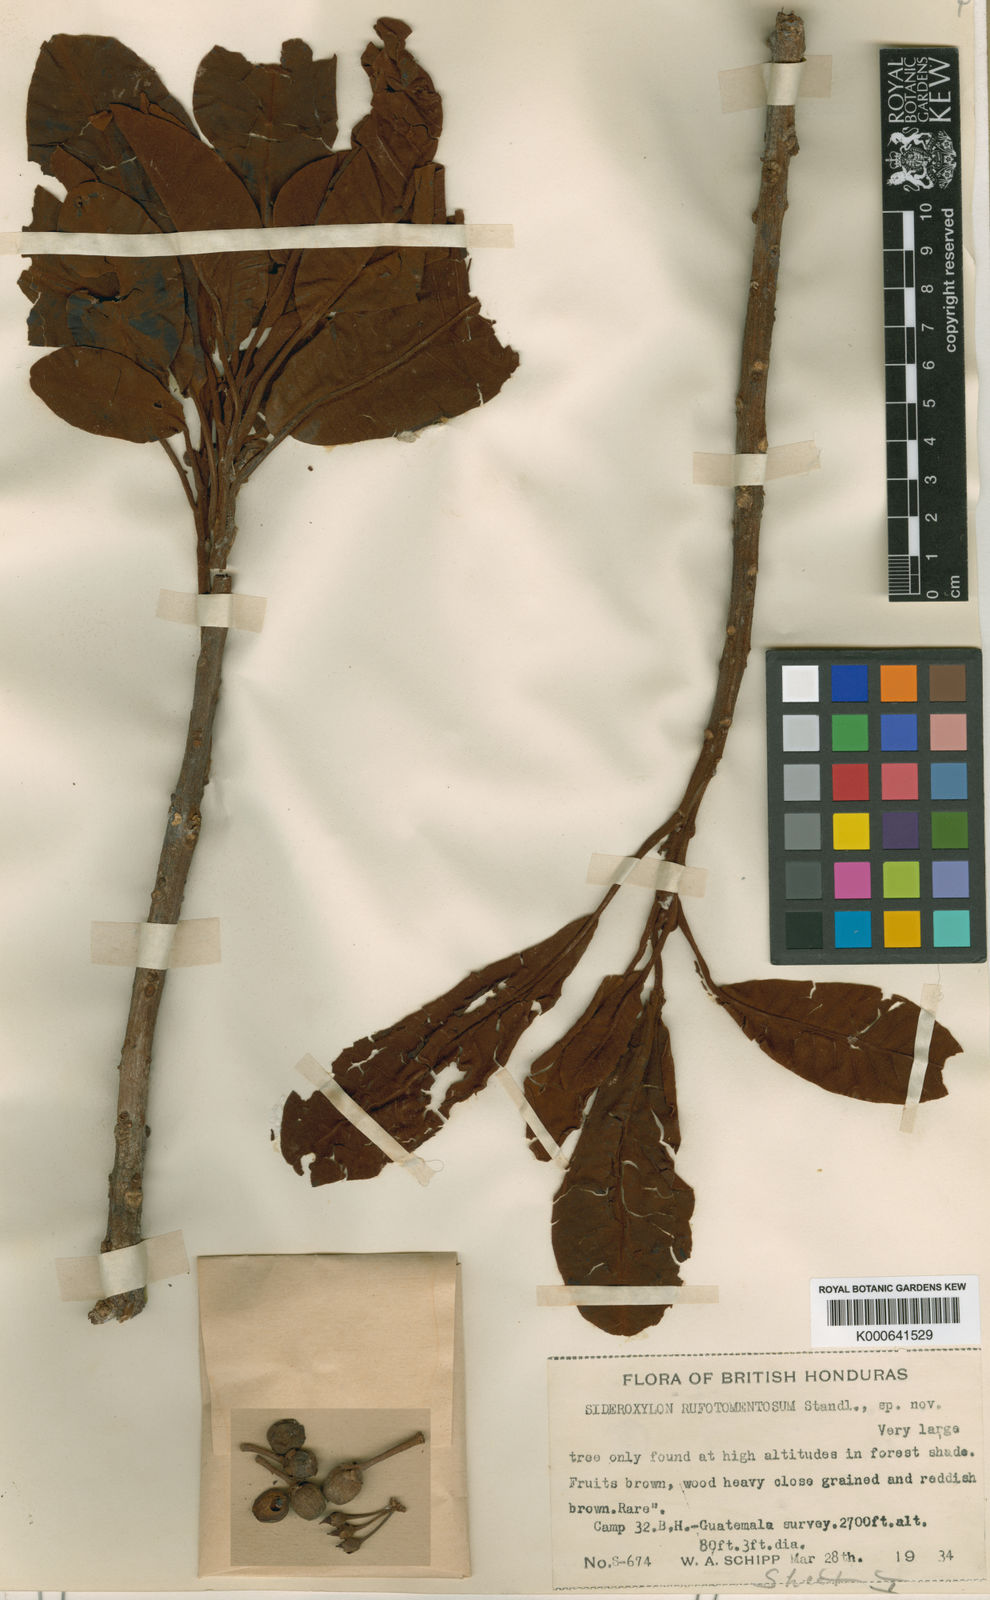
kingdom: Plantae
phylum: Tracheophyta
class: Magnoliopsida
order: Ericales
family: Sapotaceae
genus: Sideroxylon
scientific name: Sideroxylon stevensonii
